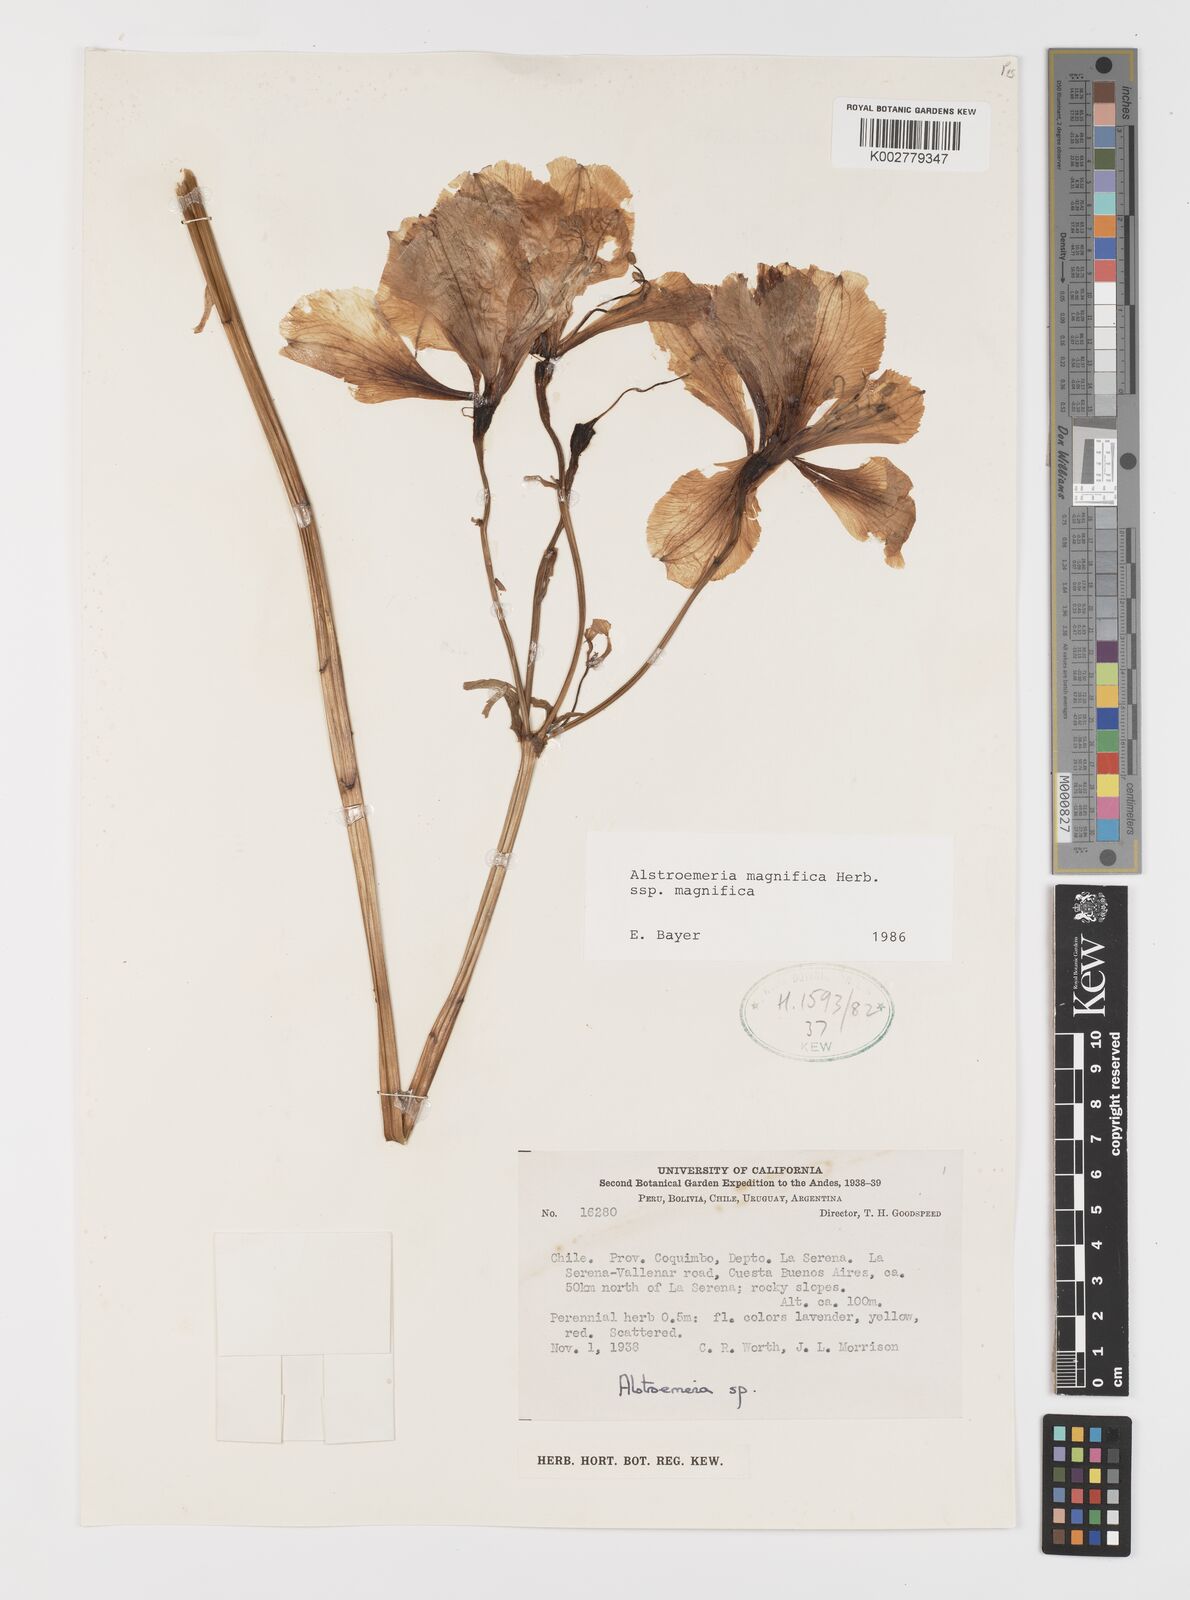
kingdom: Plantae
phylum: Tracheophyta
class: Liliopsida
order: Liliales
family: Alstroemeriaceae
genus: Alstroemeria
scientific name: Alstroemeria magnifica
